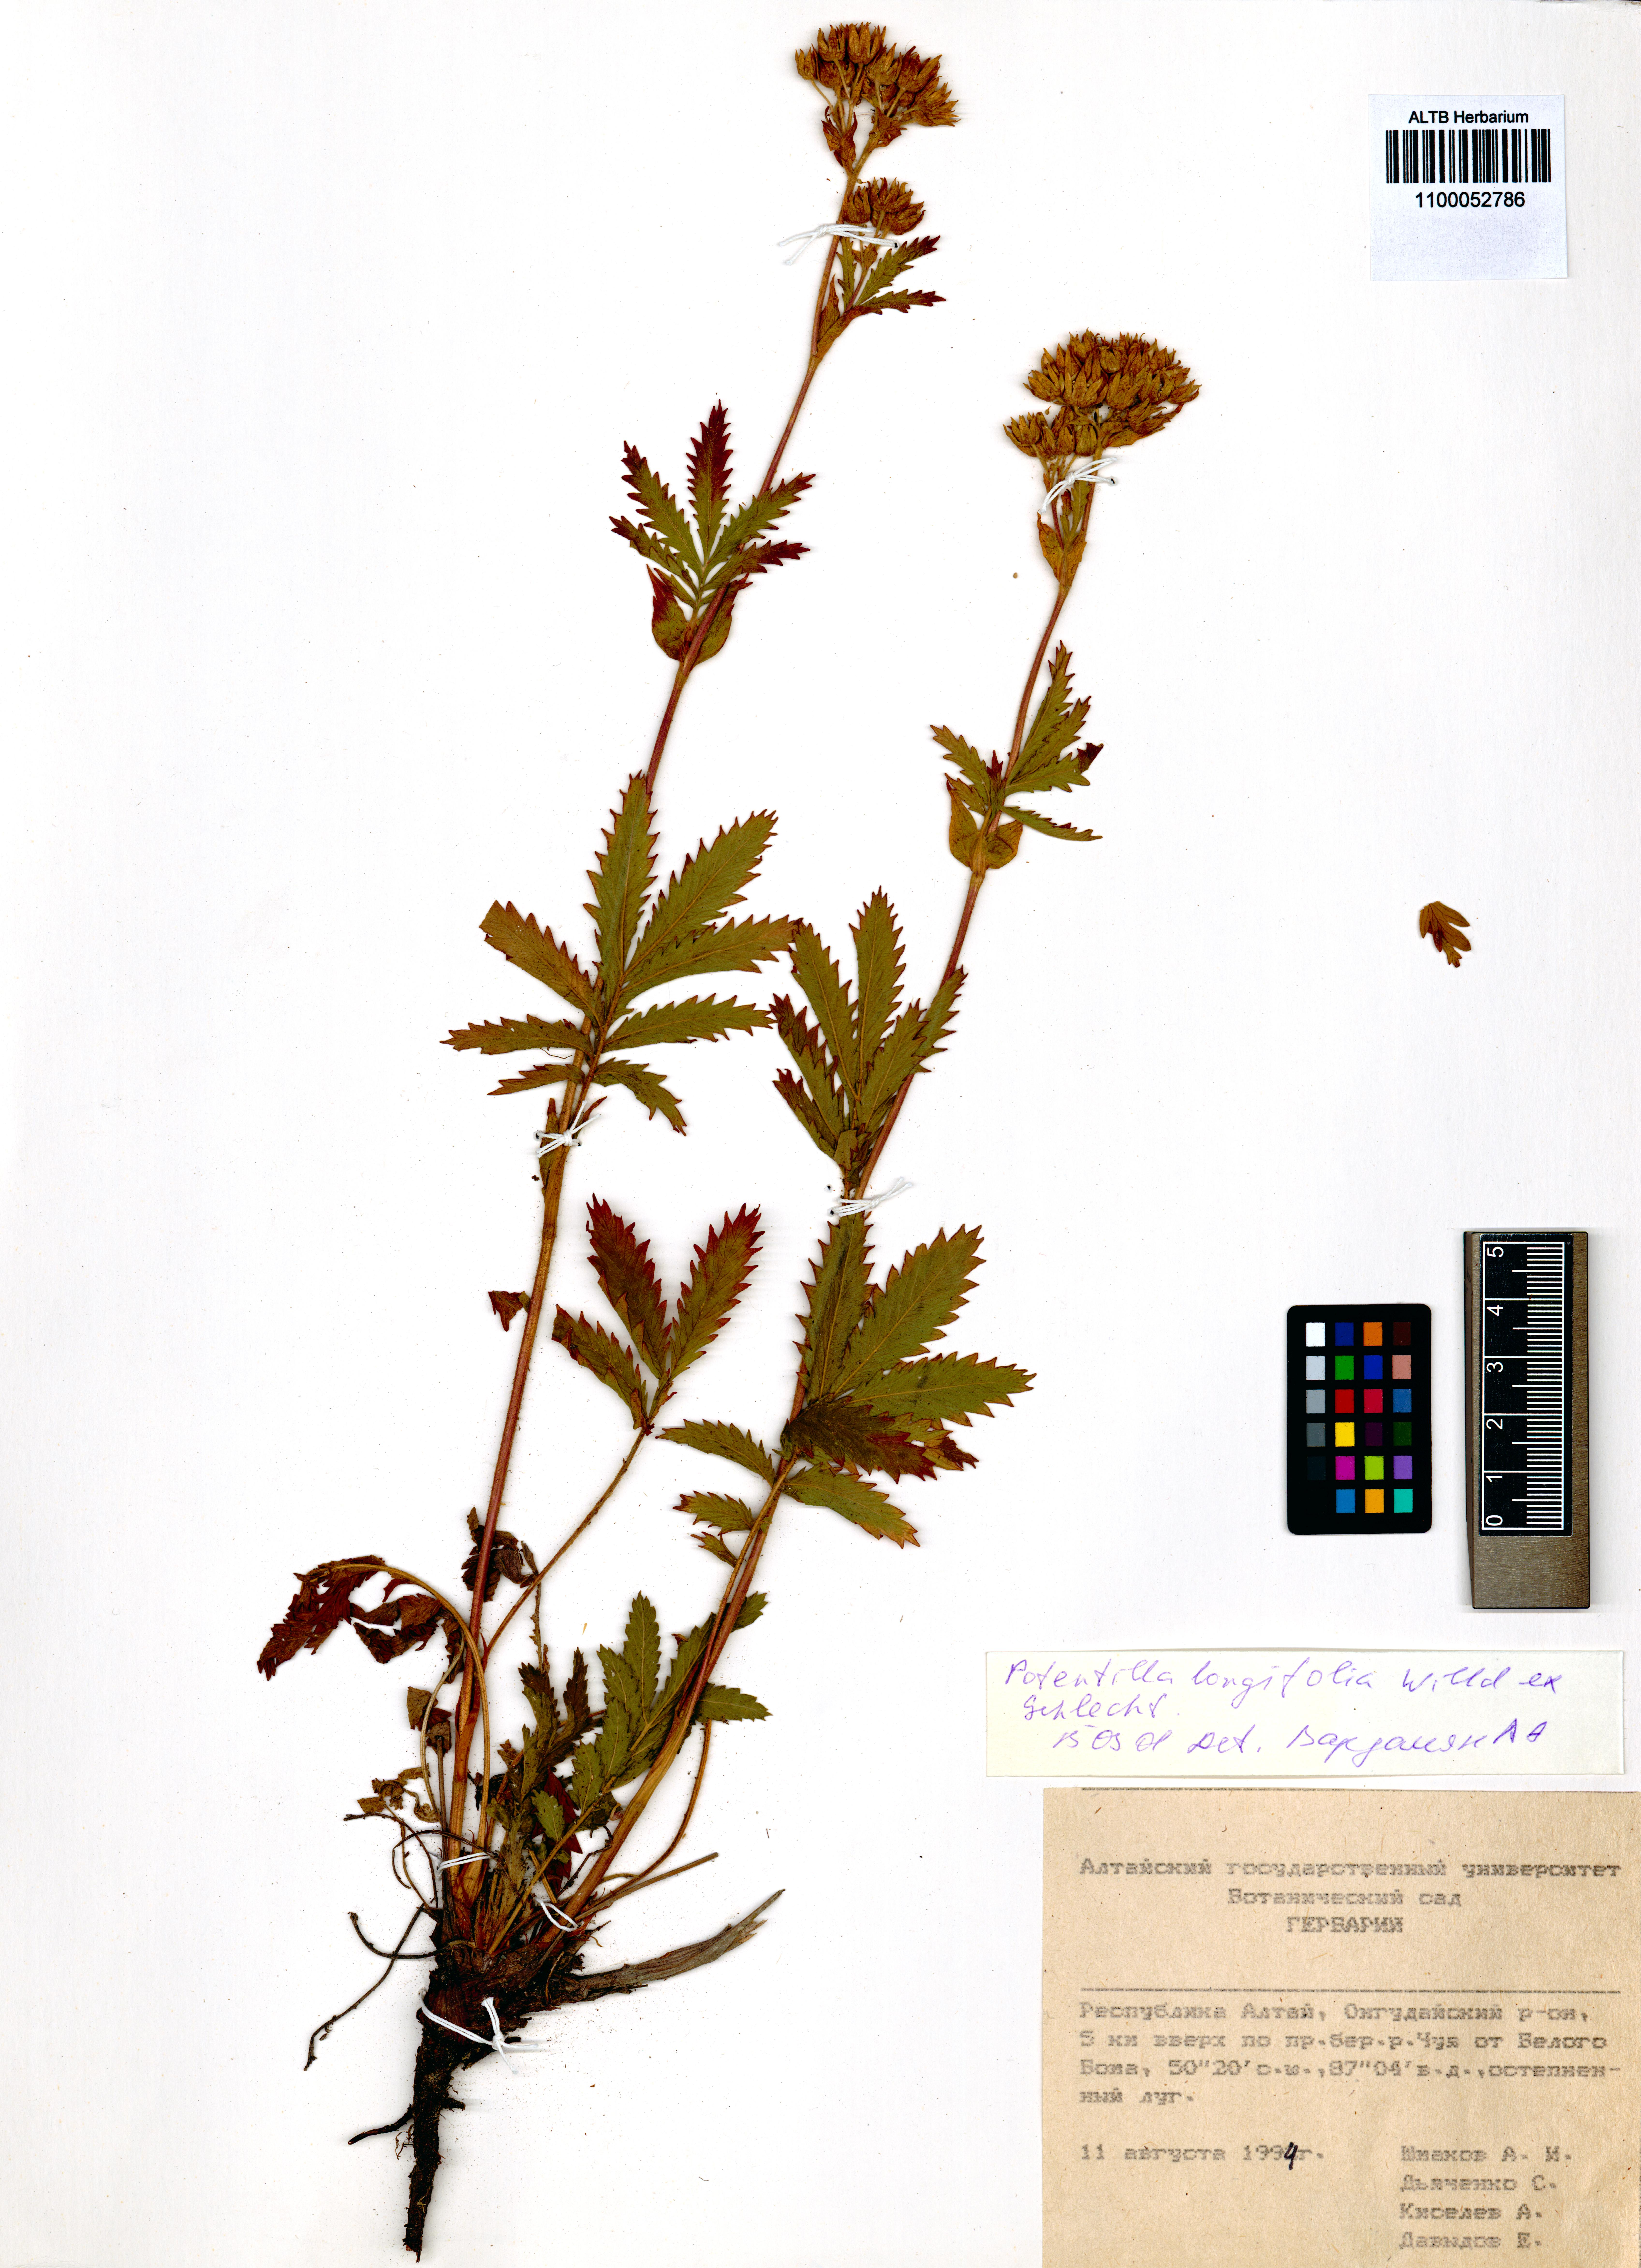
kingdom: Plantae
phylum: Tracheophyta
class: Magnoliopsida
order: Rosales
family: Rosaceae
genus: Potentilla
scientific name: Potentilla longifolia
